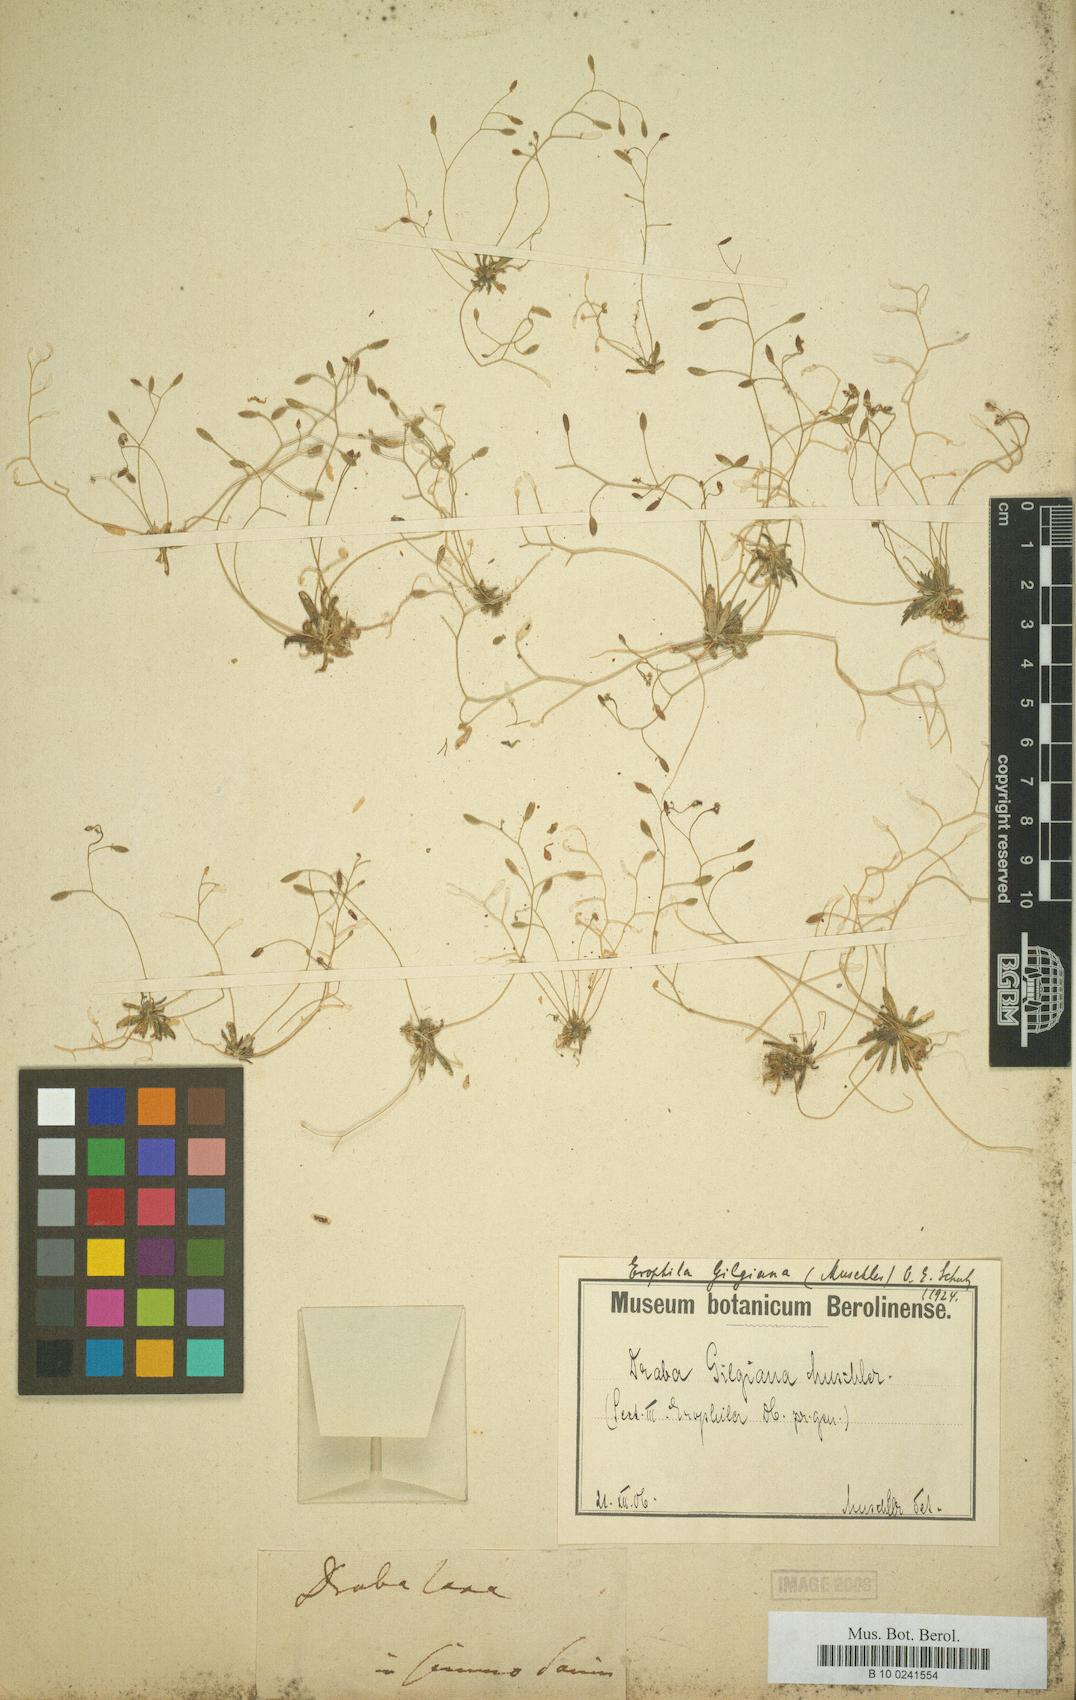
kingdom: Plantae
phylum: Tracheophyta
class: Magnoliopsida
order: Brassicales
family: Brassicaceae
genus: Draba
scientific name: Draba verna
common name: Spring draba
